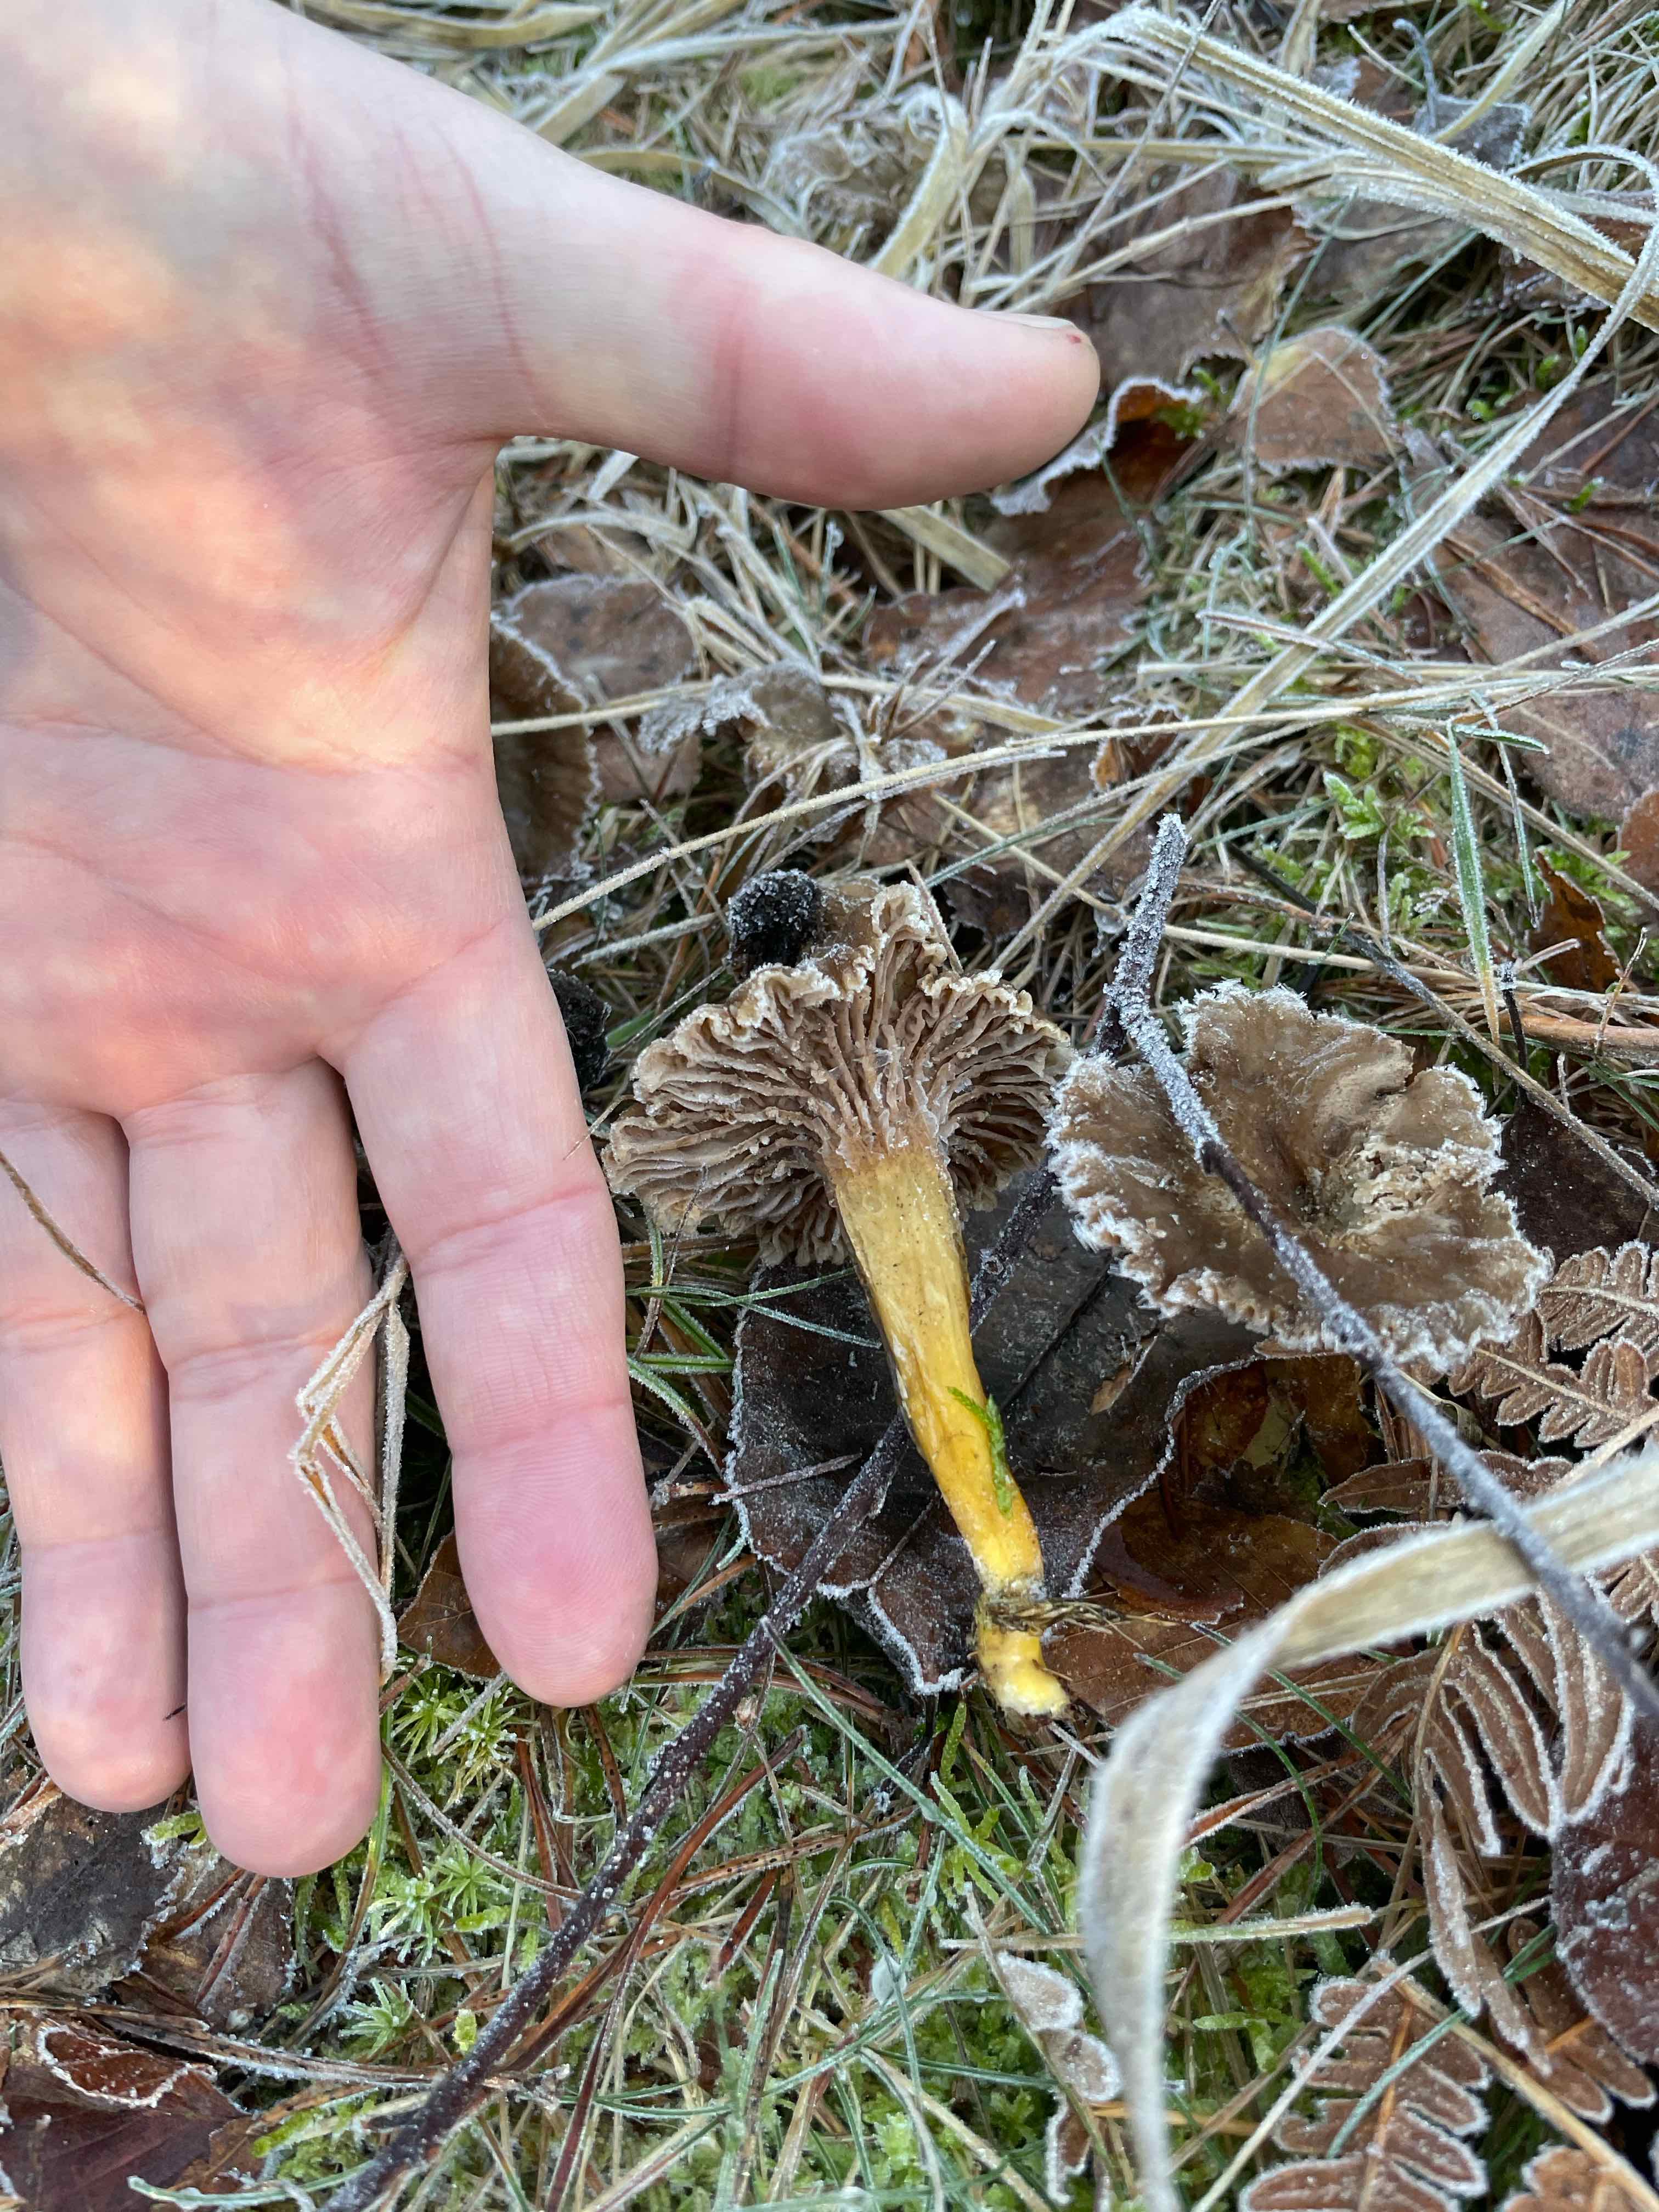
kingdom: Fungi
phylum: Basidiomycota
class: Agaricomycetes
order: Cantharellales
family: Hydnaceae
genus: Craterellus
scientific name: Craterellus tubaeformis
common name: tragt-kantarel
